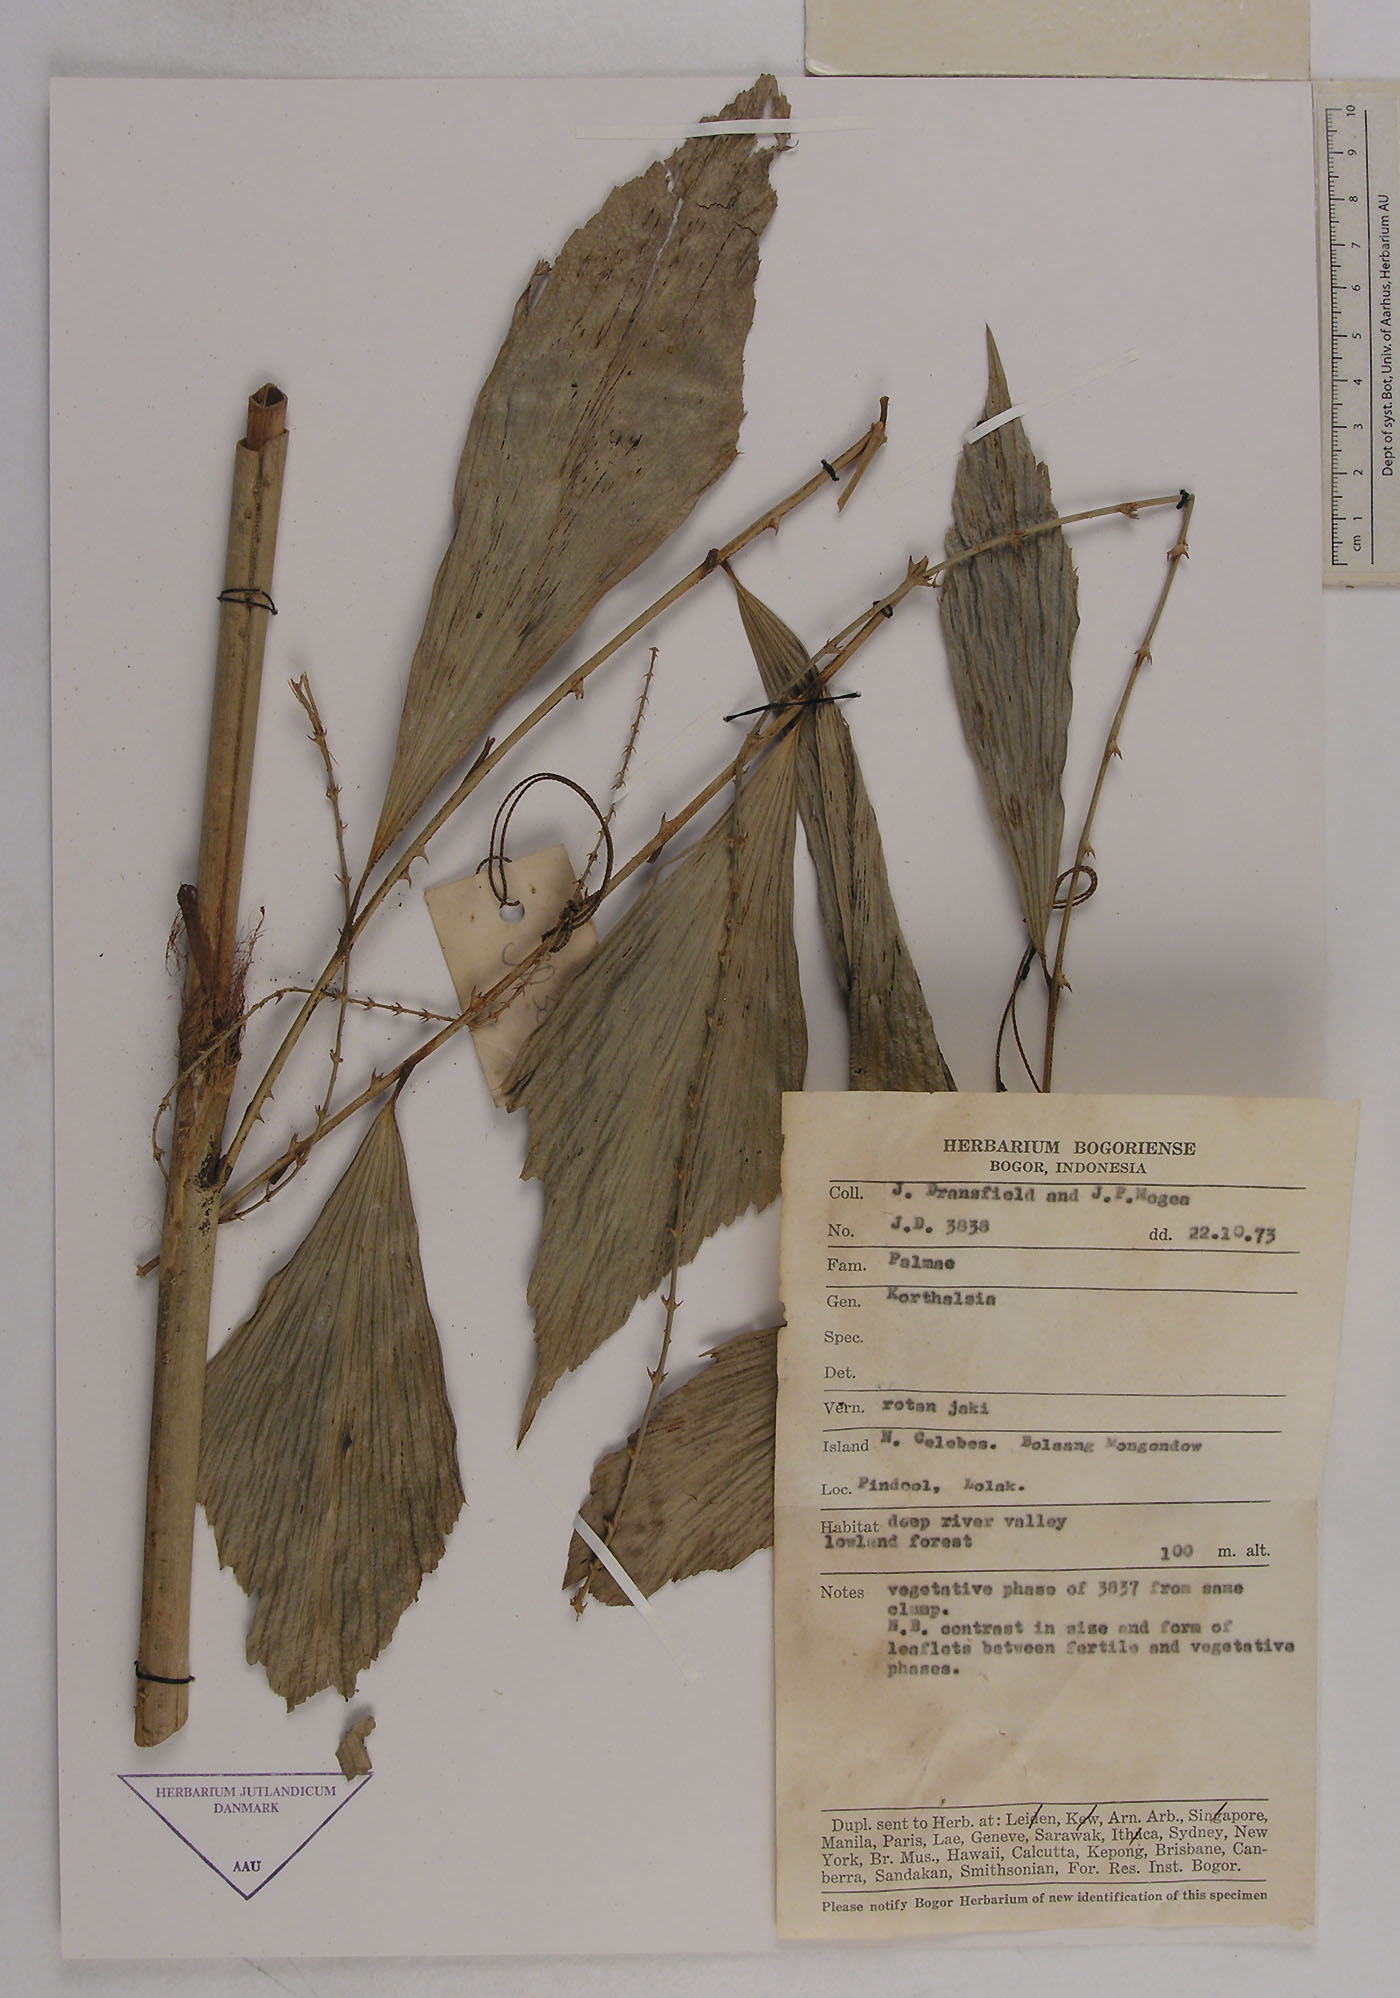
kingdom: Plantae
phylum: Tracheophyta
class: Liliopsida
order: Arecales
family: Arecaceae
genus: Korthalsia
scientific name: Korthalsia
